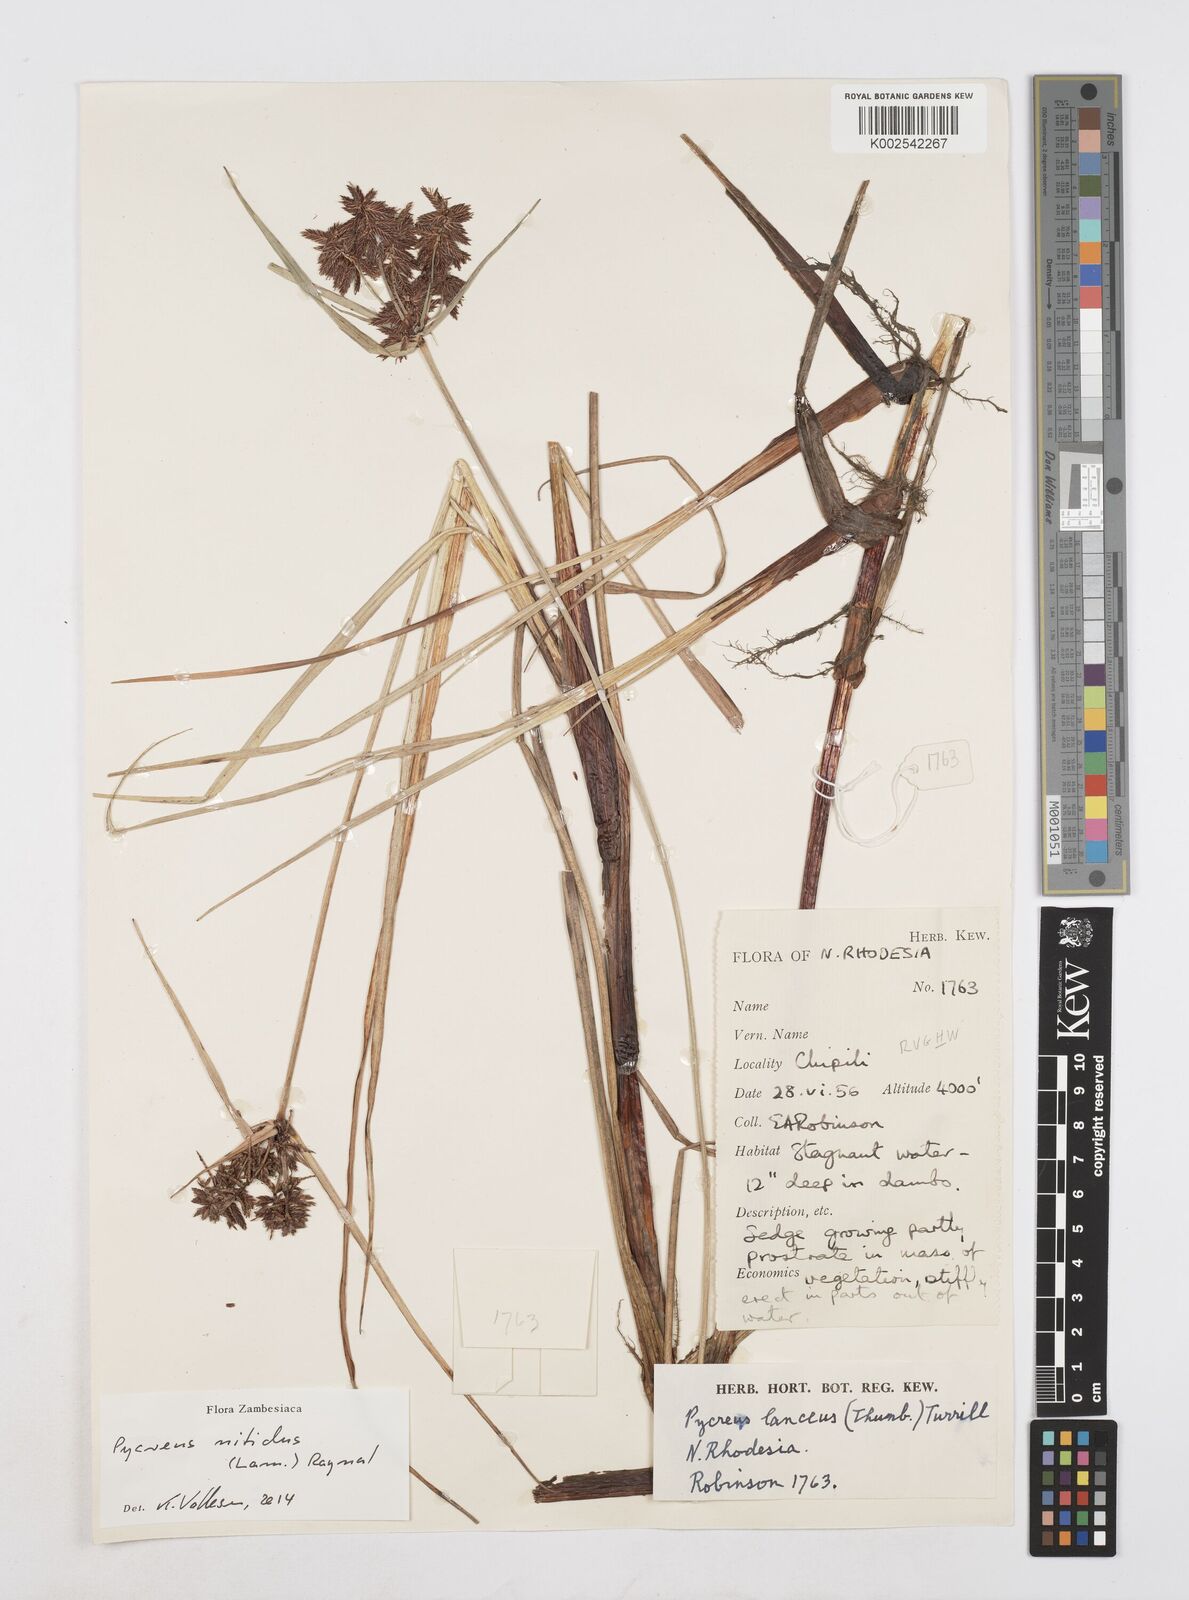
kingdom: Plantae
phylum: Tracheophyta
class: Liliopsida
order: Poales
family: Cyperaceae
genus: Cyperus
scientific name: Cyperus nitidus
